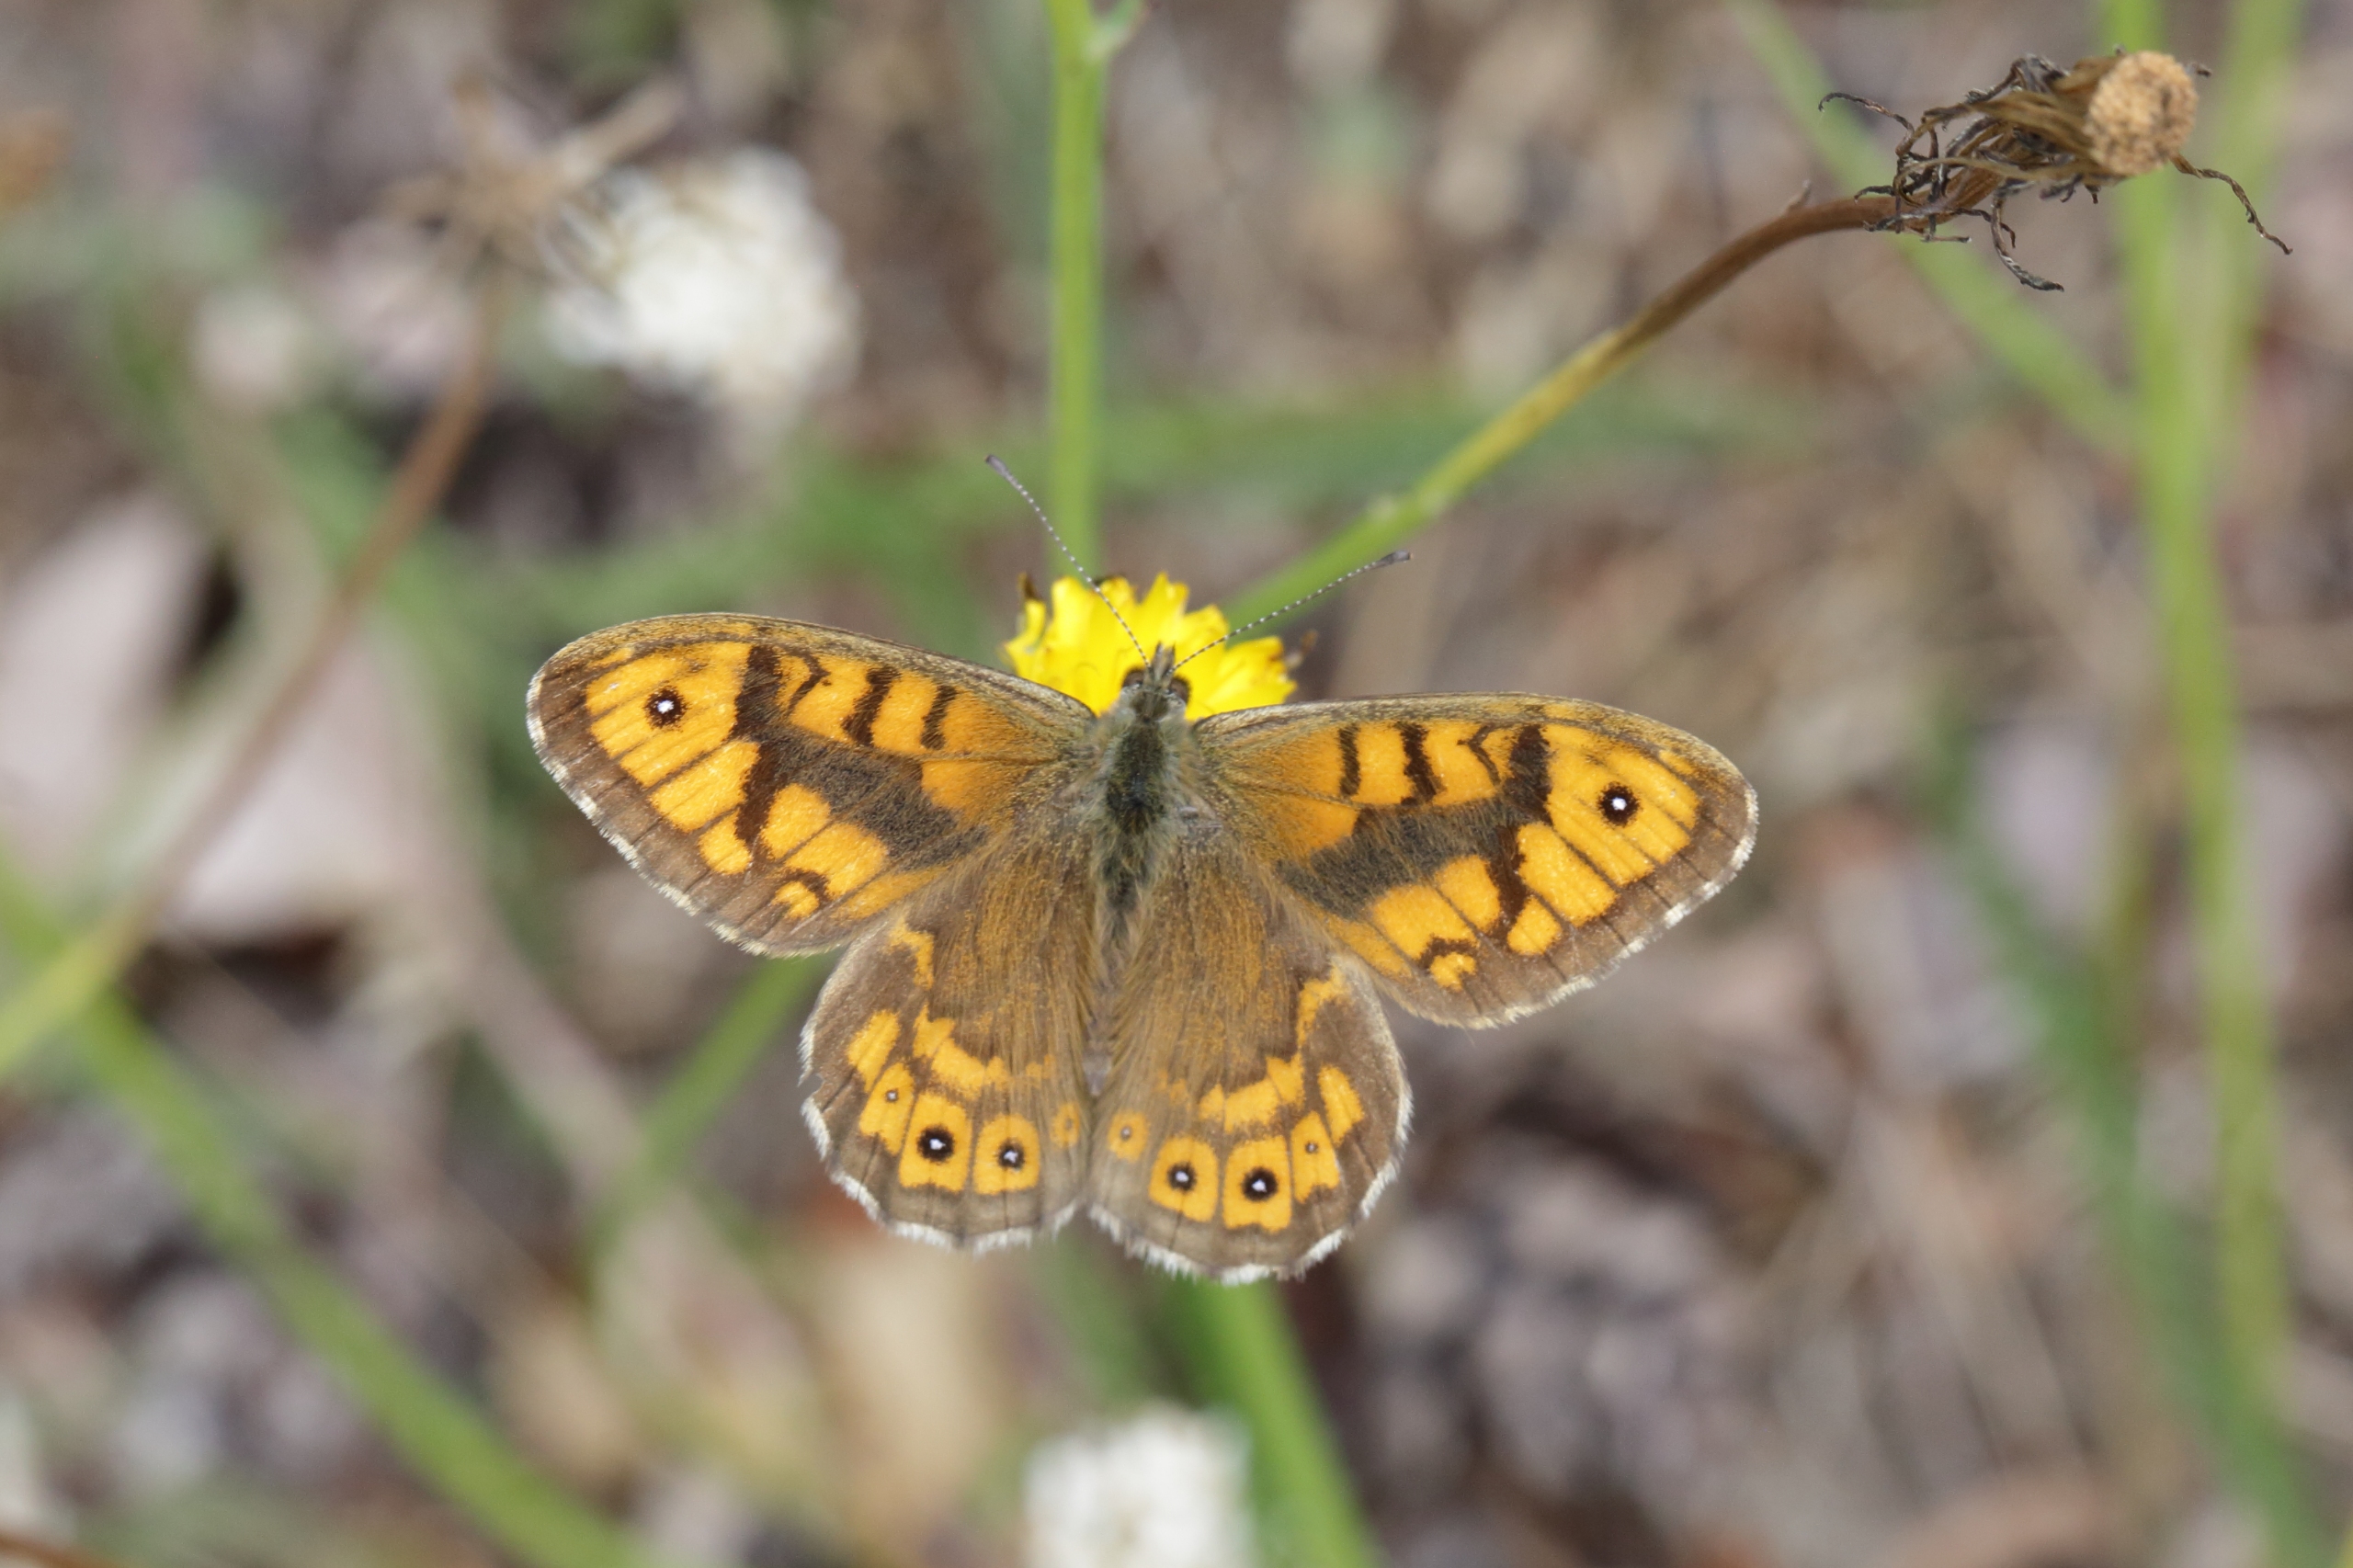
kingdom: Animalia
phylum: Arthropoda
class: Insecta
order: Lepidoptera
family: Nymphalidae
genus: Pararge
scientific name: Pararge Lasiommata megera
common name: Vejrandøje
